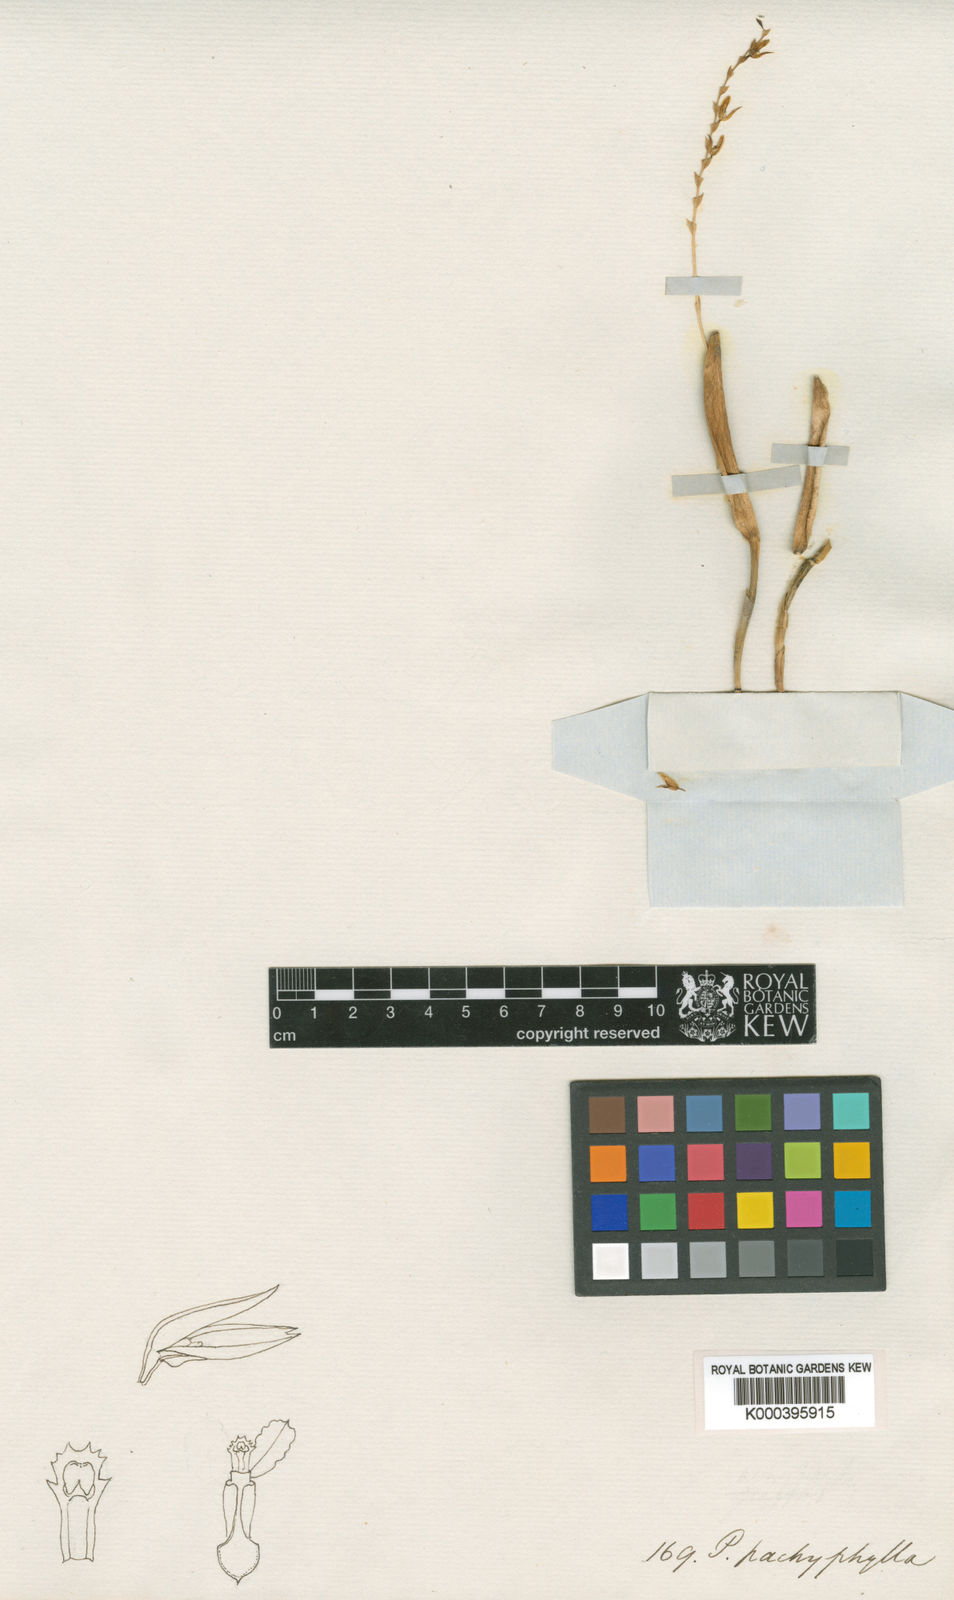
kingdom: Plantae
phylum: Tracheophyta
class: Liliopsida
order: Asparagales
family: Orchidaceae
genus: Acianthera
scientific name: Acianthera teres
